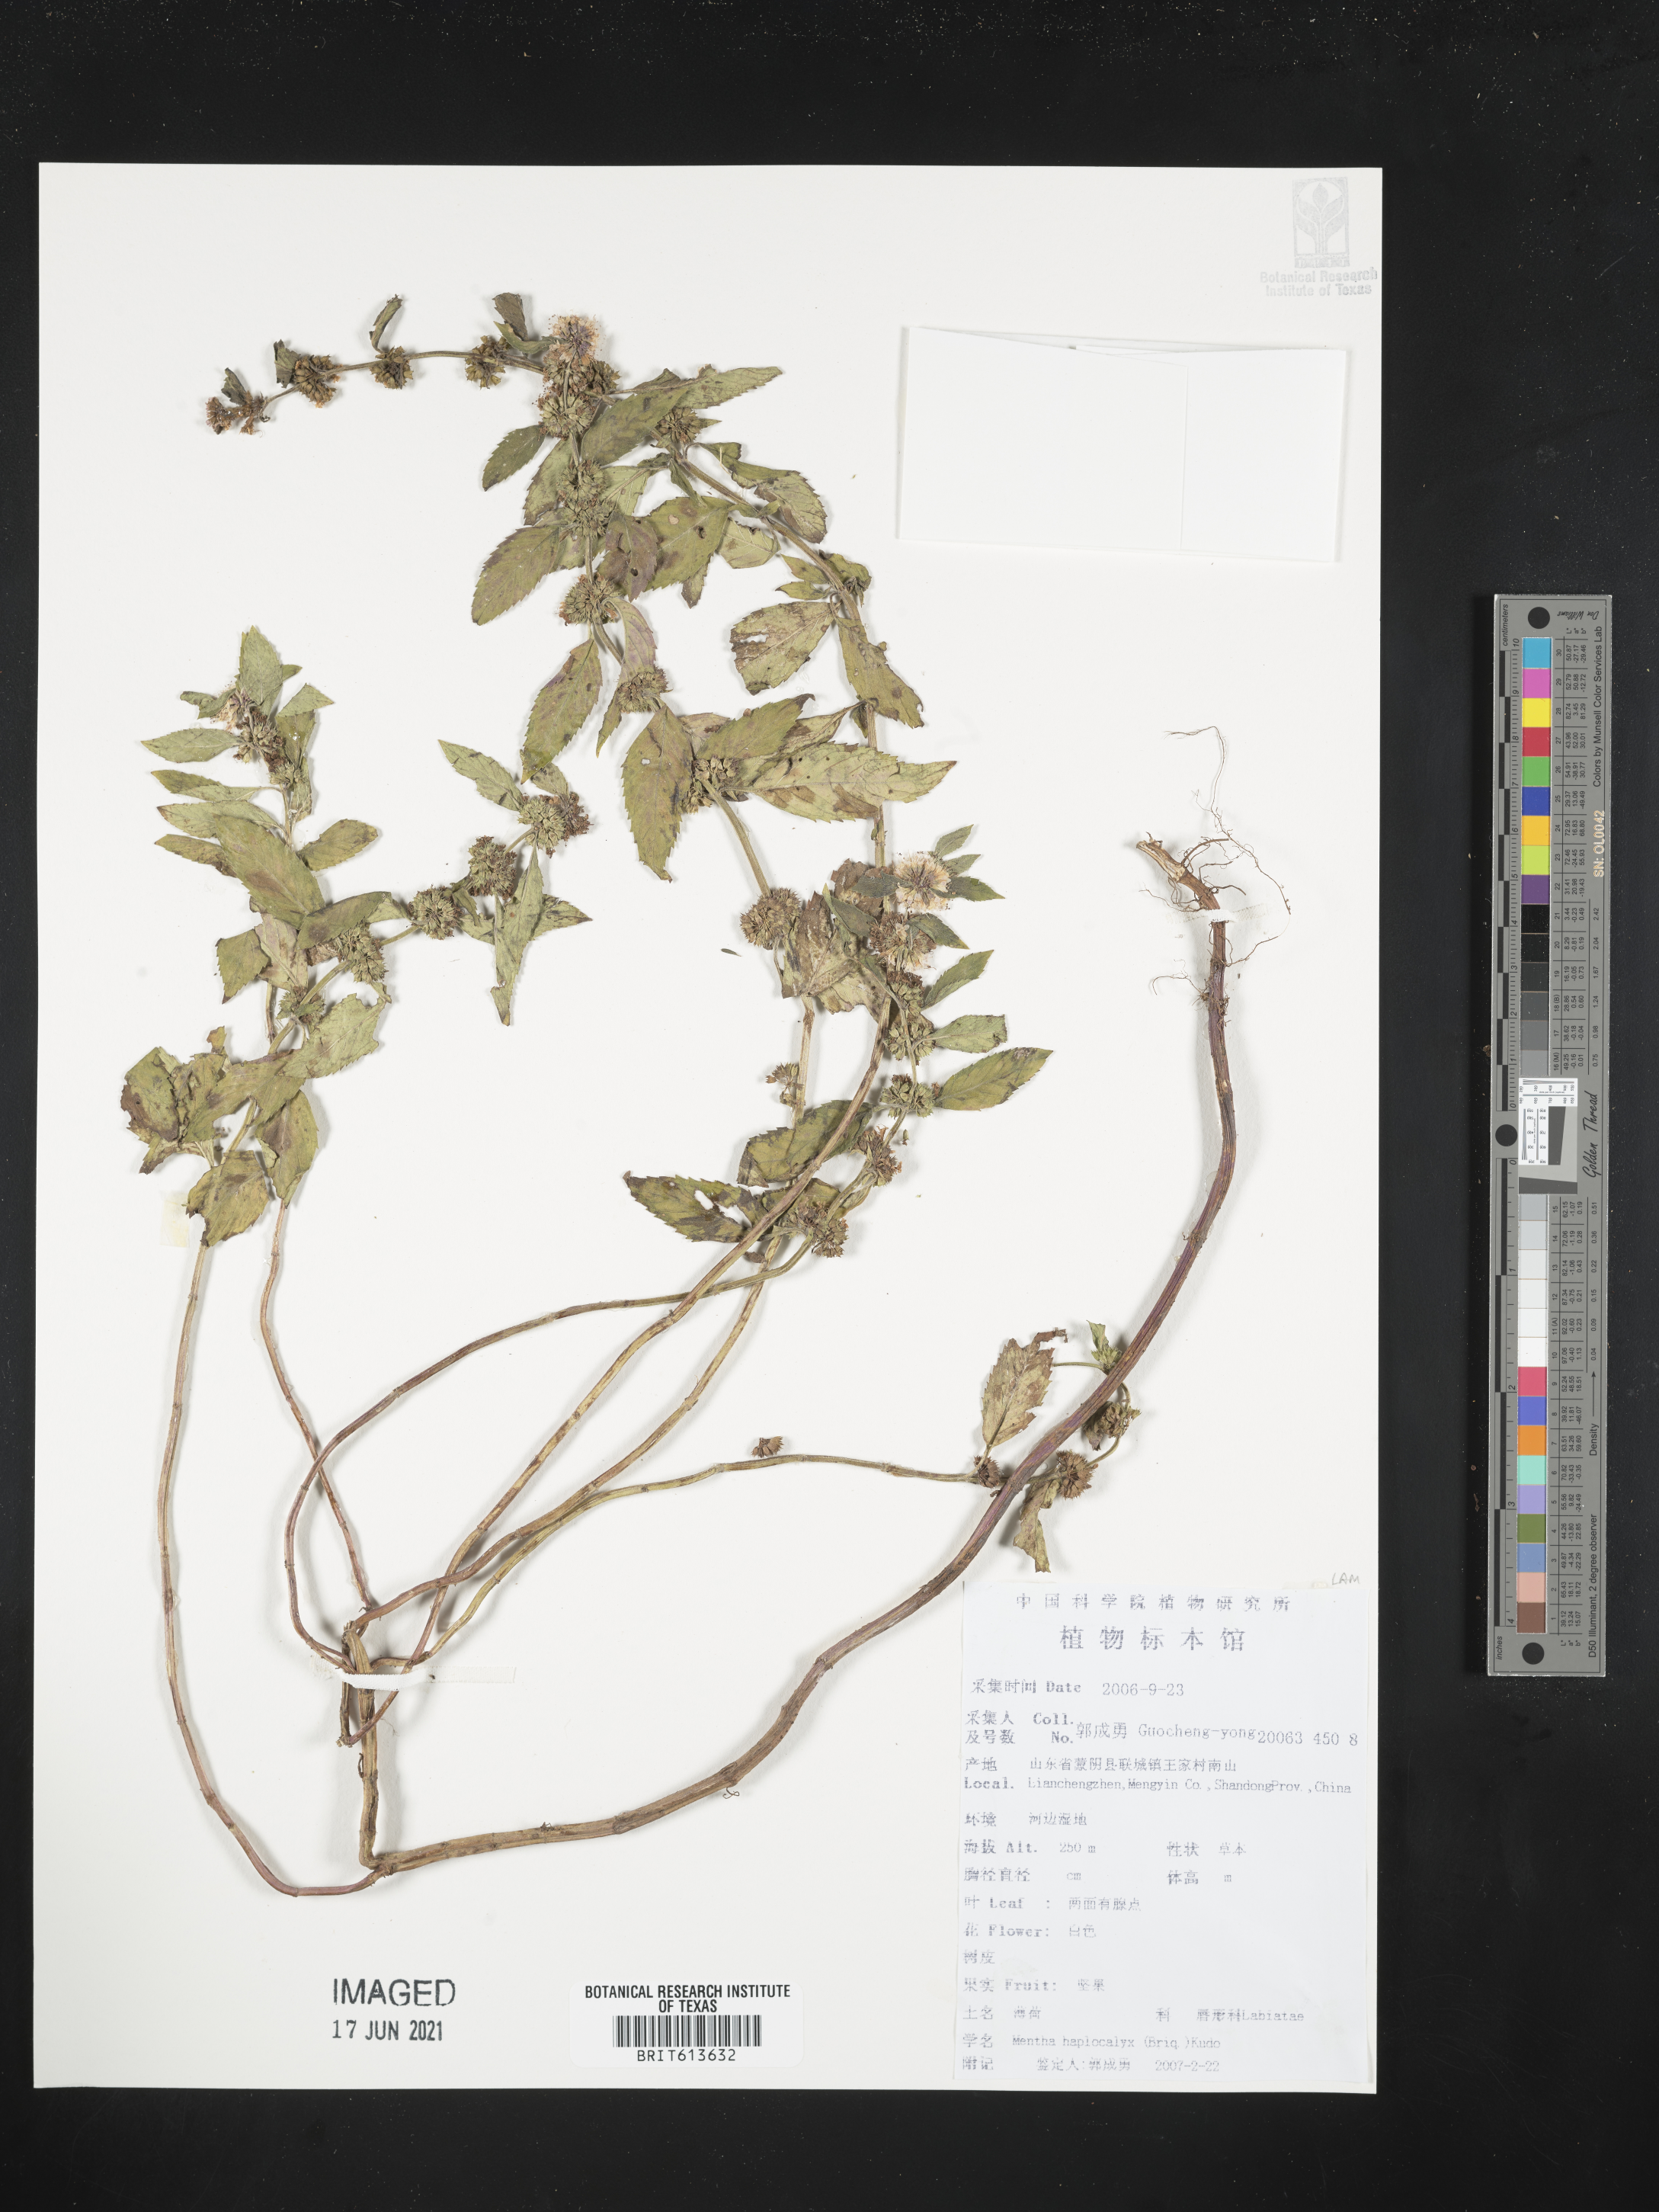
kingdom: Plantae
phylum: Tracheophyta
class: Magnoliopsida
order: Lamiales
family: Lamiaceae
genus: Mentha
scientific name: Mentha canadensis
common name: American corn mint
